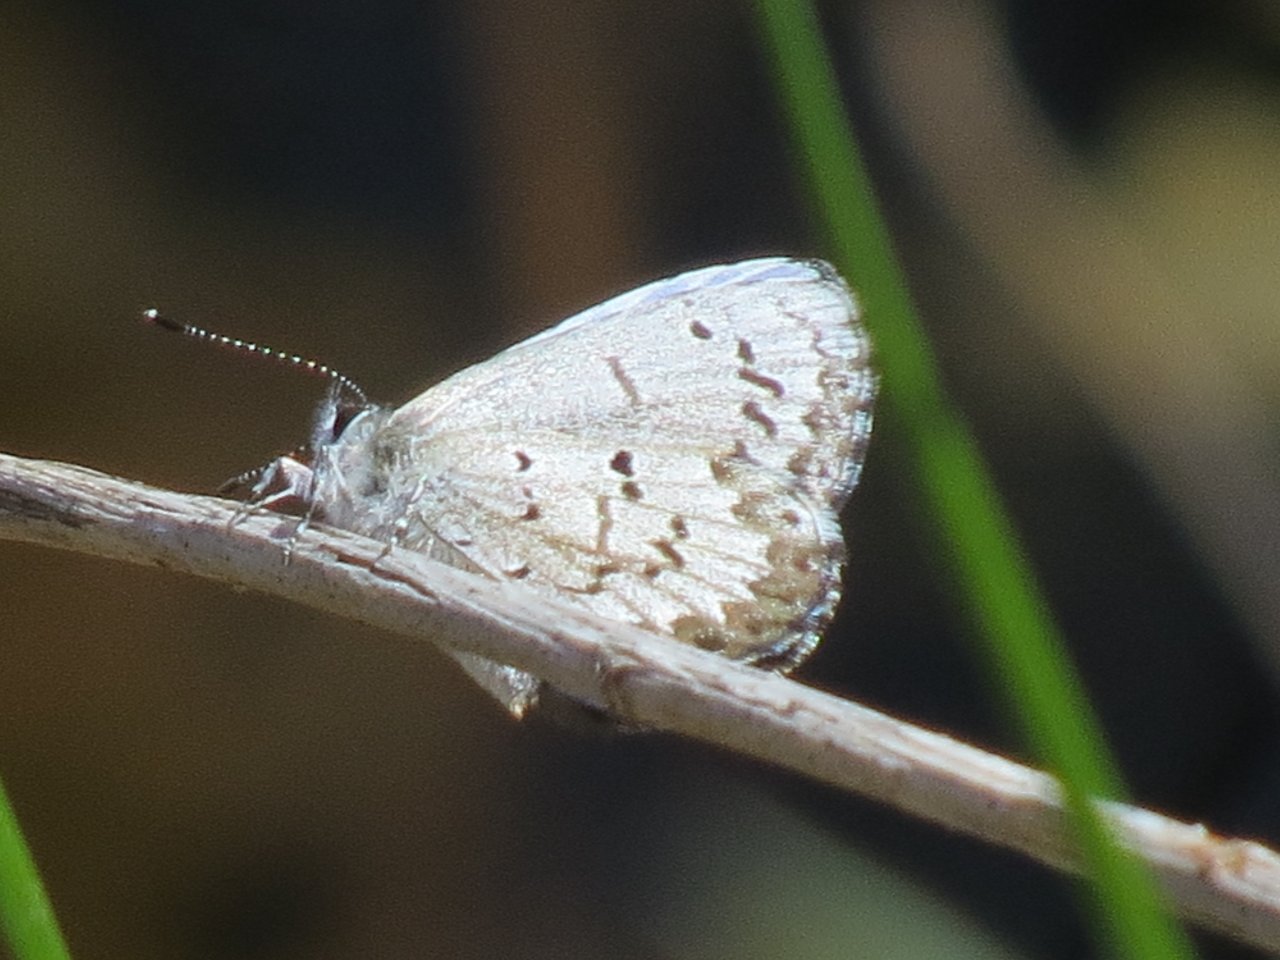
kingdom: Animalia
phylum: Arthropoda
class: Insecta
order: Lepidoptera
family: Lycaenidae
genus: Celastrina
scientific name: Celastrina lucia
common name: Northern Spring Azure
